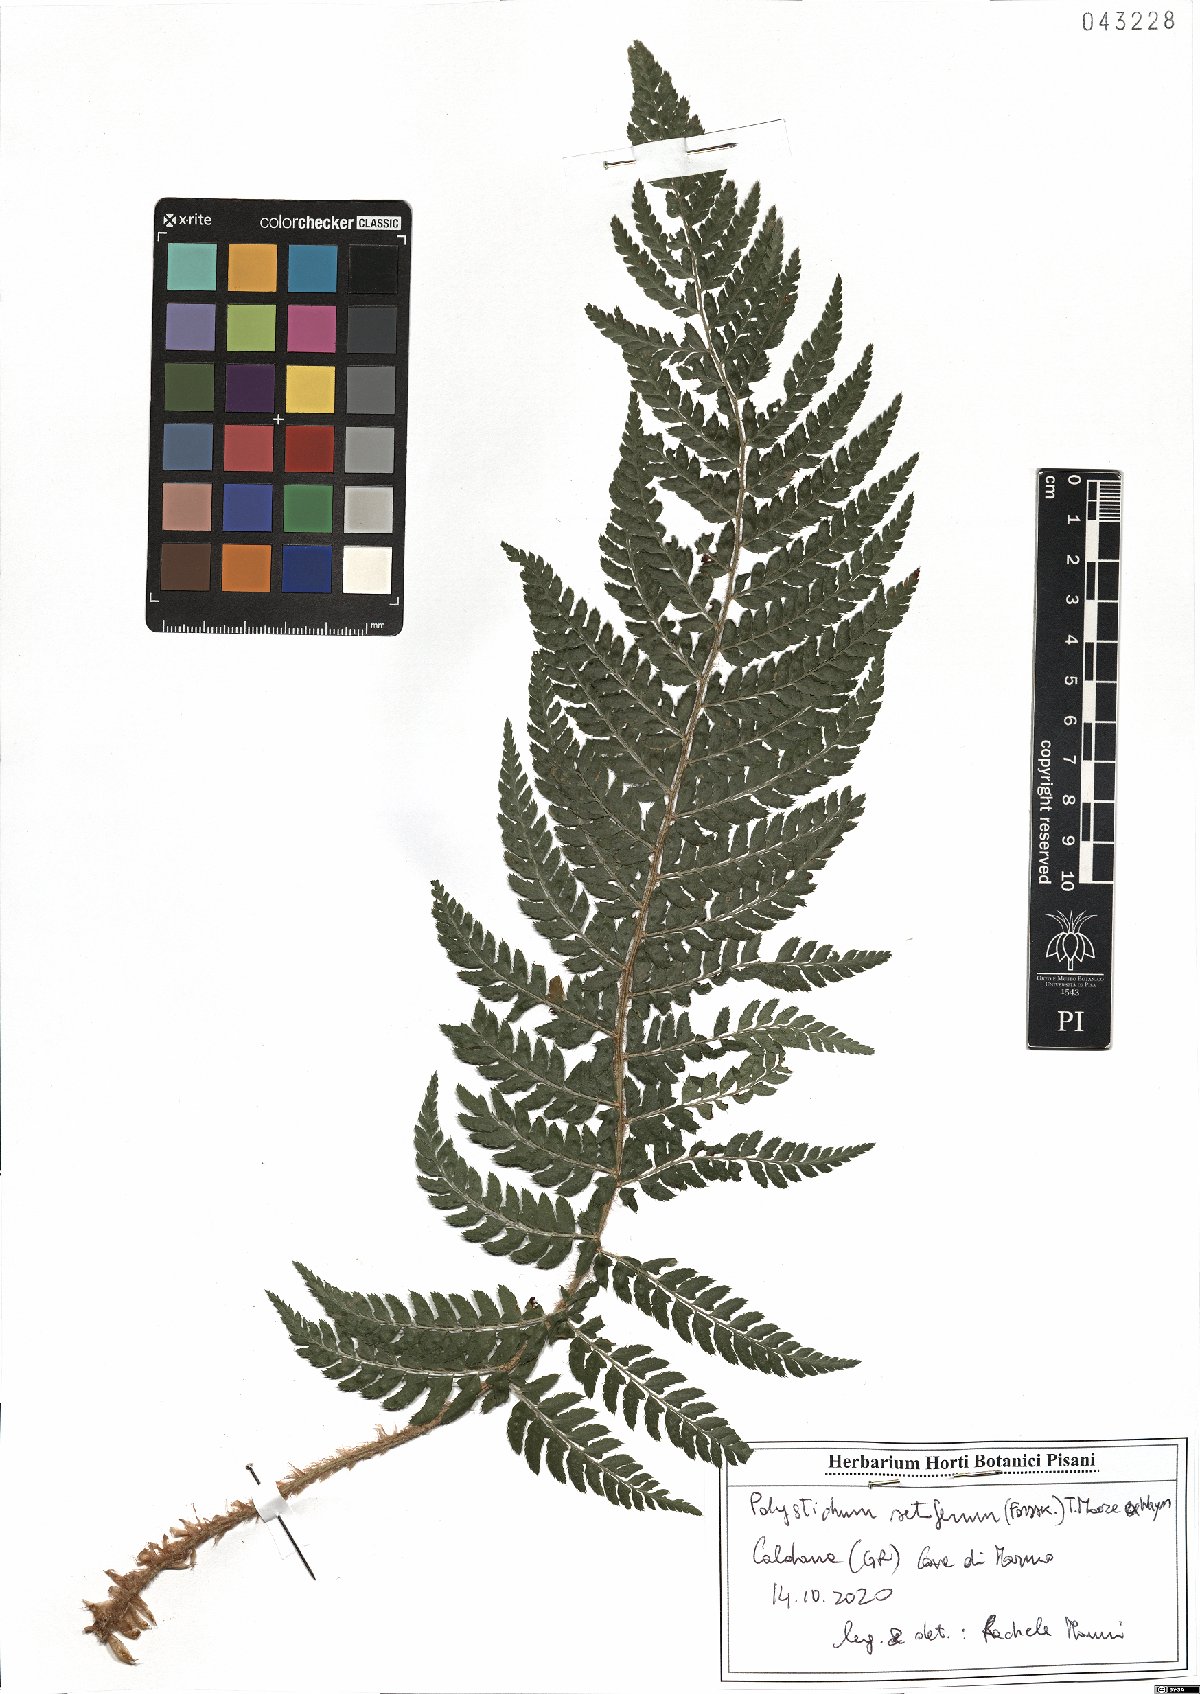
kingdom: Plantae
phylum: Tracheophyta
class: Polypodiopsida
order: Polypodiales
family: Dryopteridaceae
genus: Polystichum
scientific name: Polystichum setiferum
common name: Soft shield-fern
